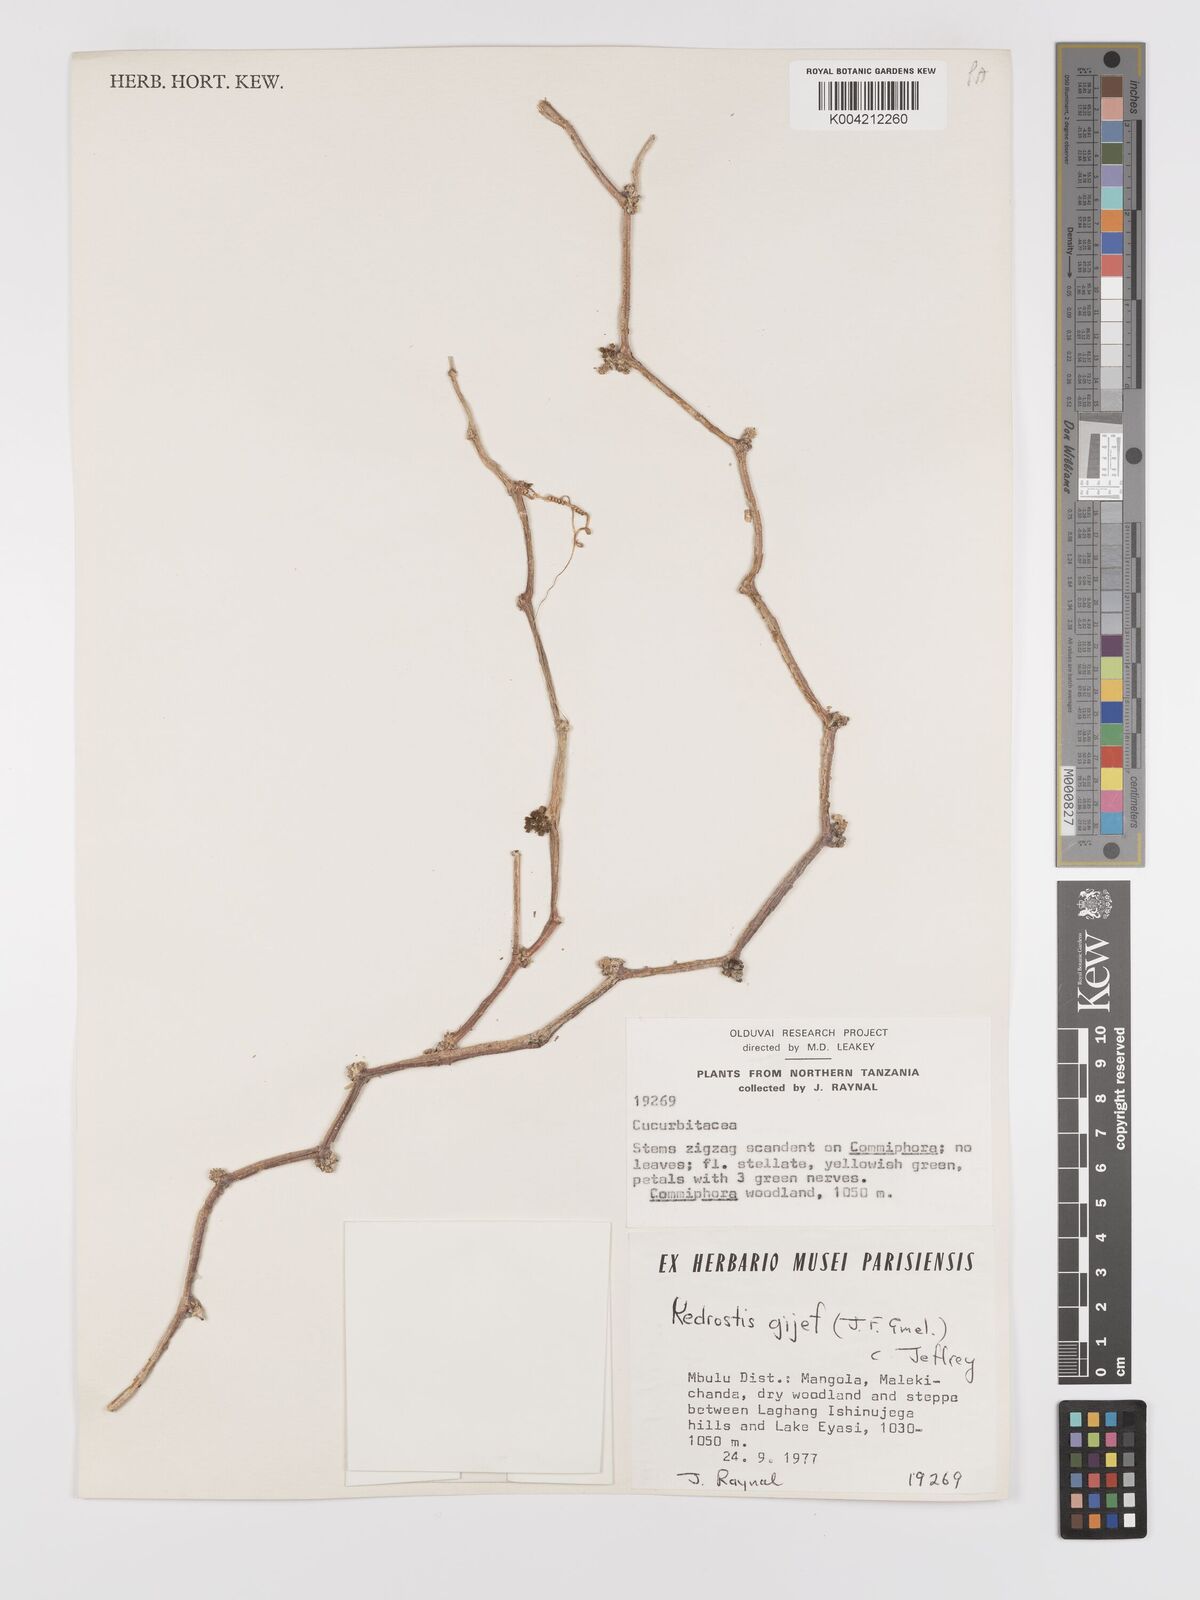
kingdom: Plantae
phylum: Tracheophyta
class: Magnoliopsida
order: Cucurbitales
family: Cucurbitaceae
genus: Kedrostis
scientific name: Kedrostis gijef
